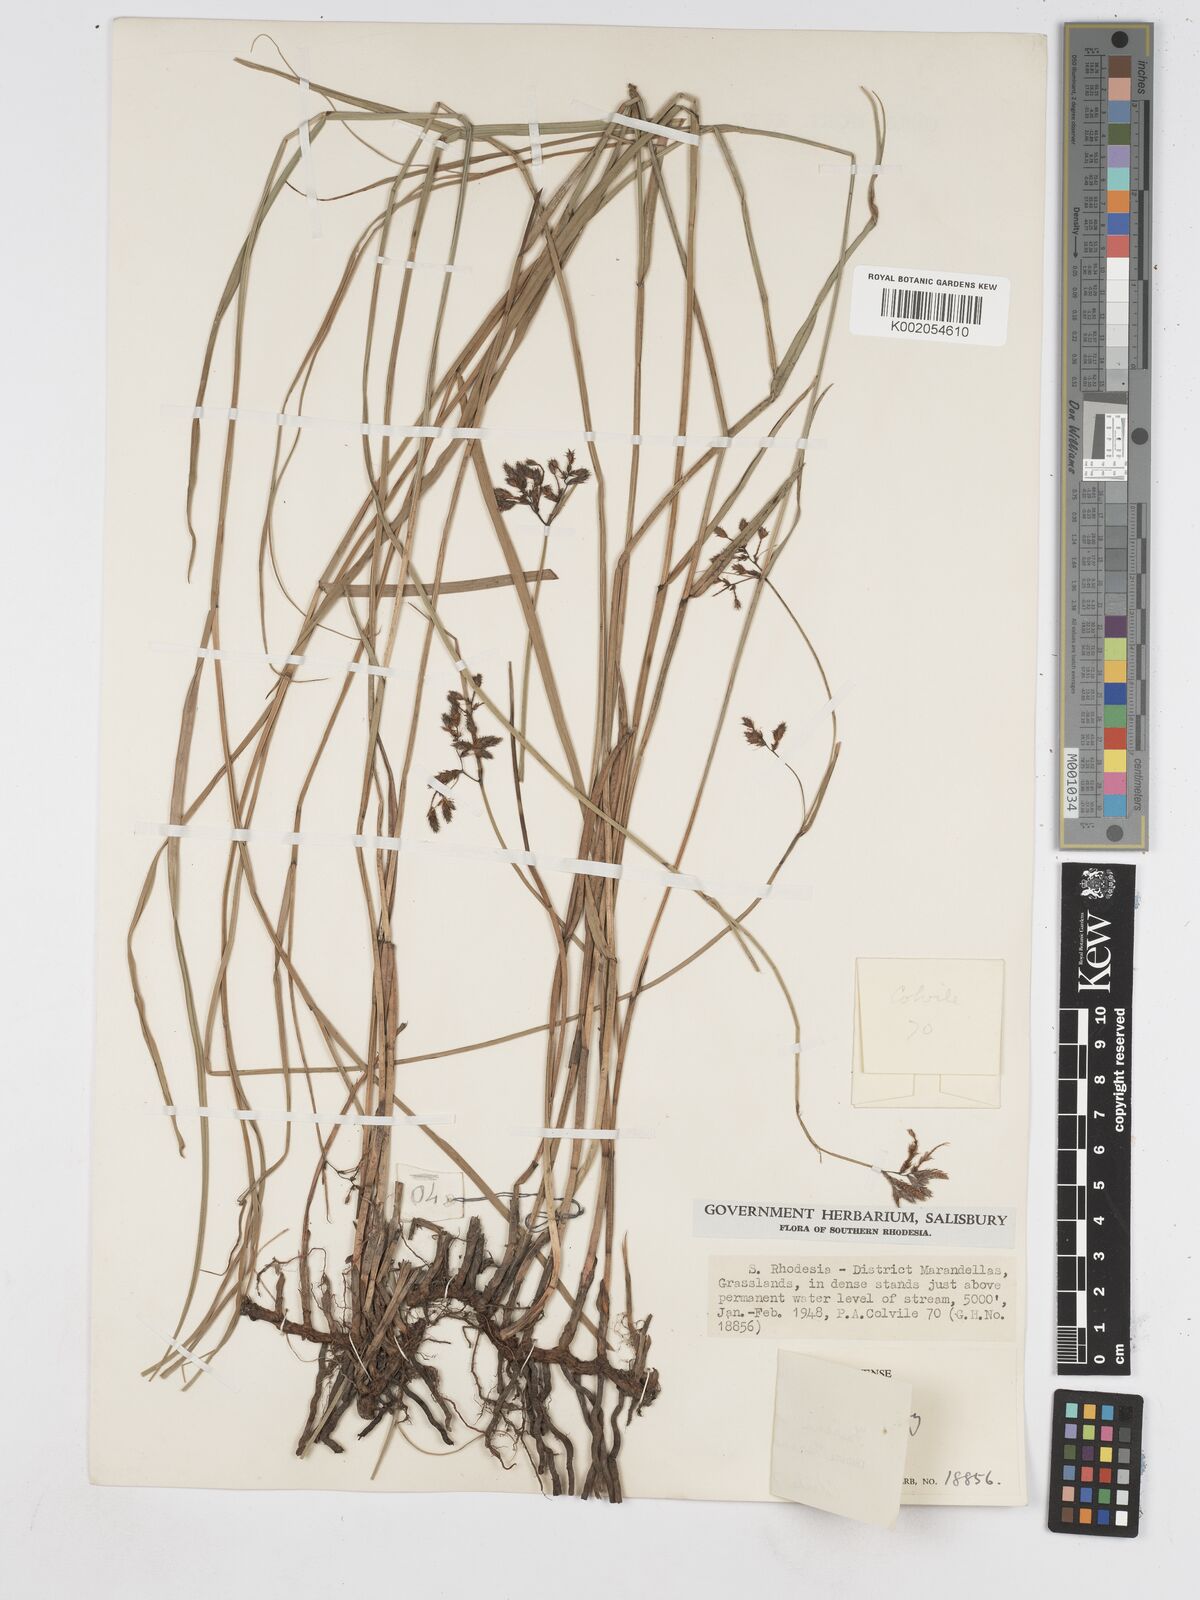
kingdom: Plantae
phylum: Tracheophyta
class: Liliopsida
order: Poales
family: Cyperaceae
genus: Fuirena
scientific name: Fuirena welwitschii
